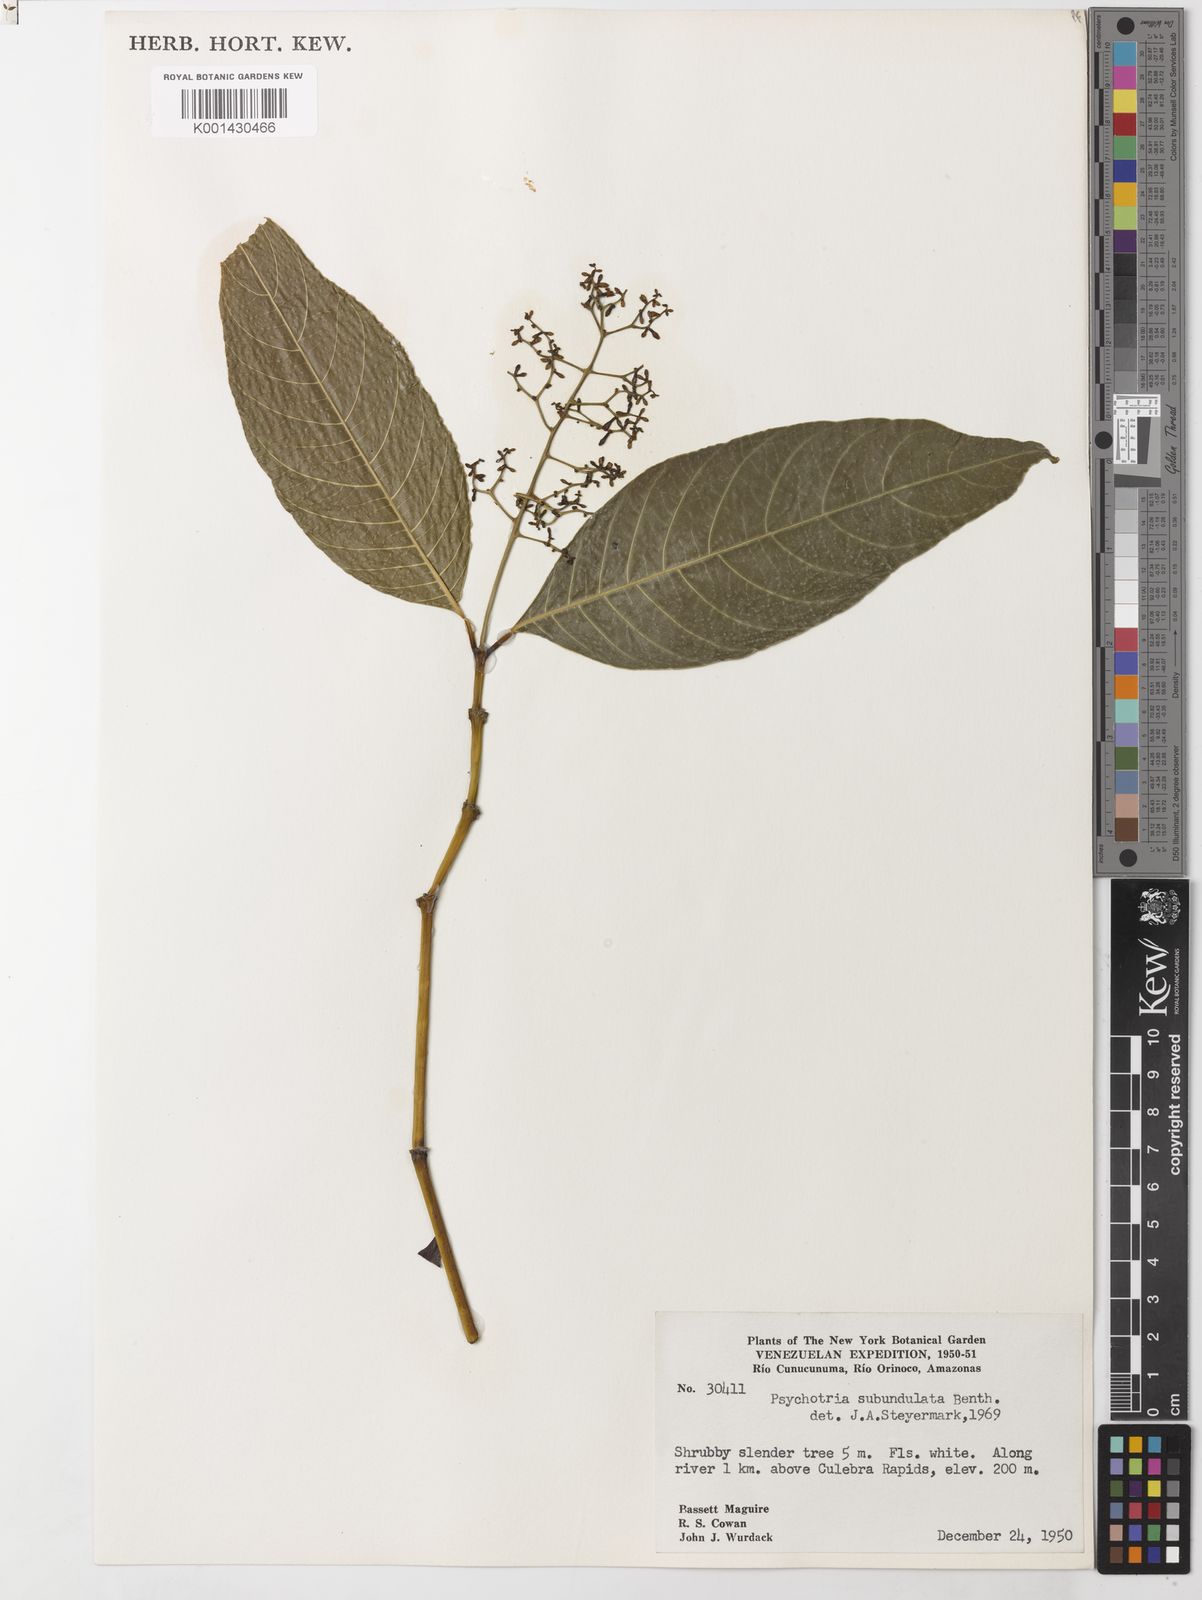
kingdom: Plantae
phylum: Tracheophyta
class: Magnoliopsida
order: Gentianales
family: Rubiaceae
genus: Palicourea
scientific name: Palicourea subundulata
